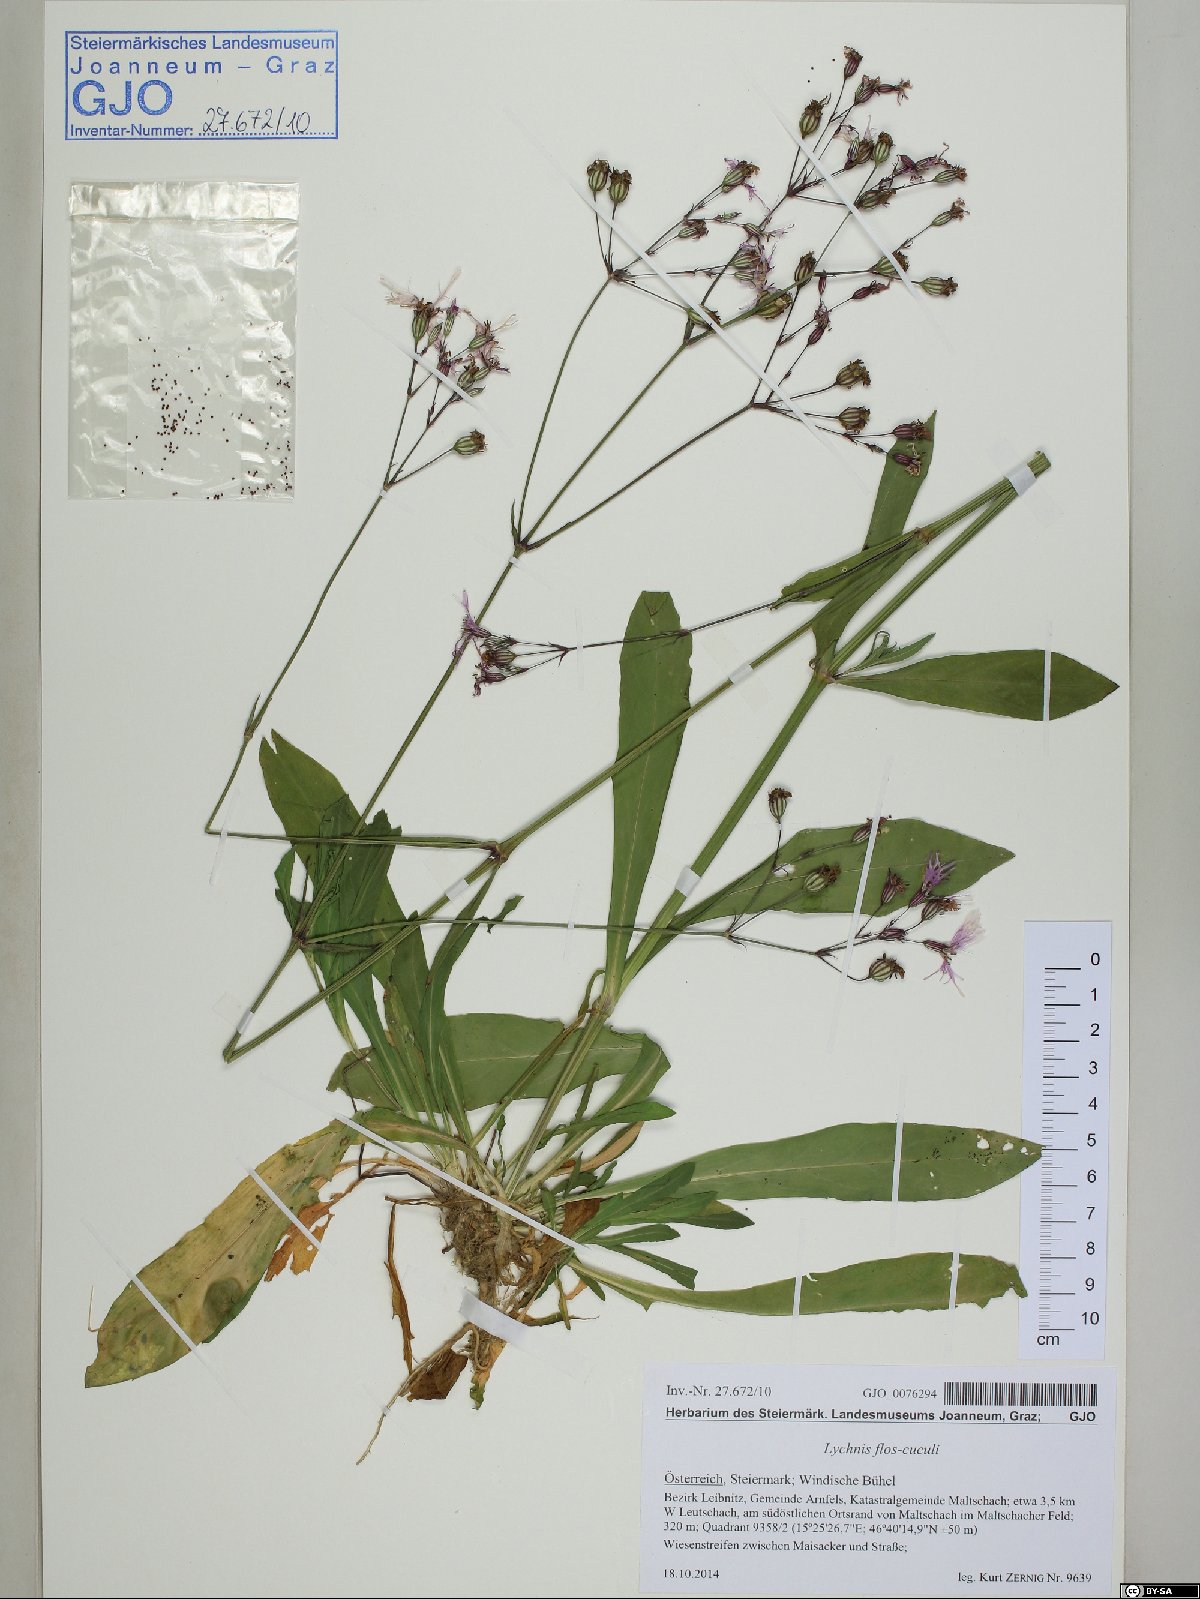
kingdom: Plantae
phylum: Tracheophyta
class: Magnoliopsida
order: Caryophyllales
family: Caryophyllaceae
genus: Silene
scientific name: Silene flos-cuculi
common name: Ragged-robin
